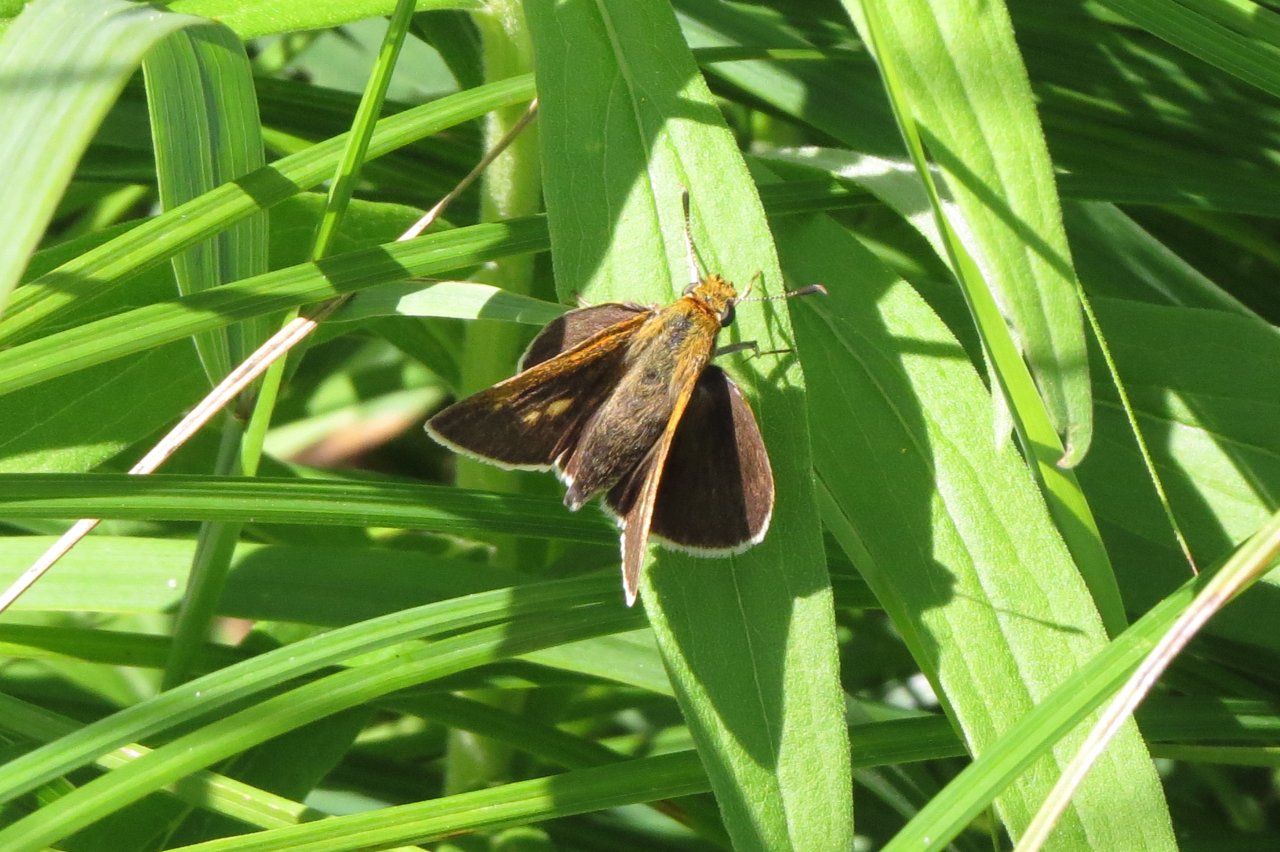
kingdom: Animalia
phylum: Arthropoda
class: Insecta
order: Lepidoptera
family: Hesperiidae
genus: Euphyes
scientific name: Euphyes bimacula
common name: Two-spotted Skipper
